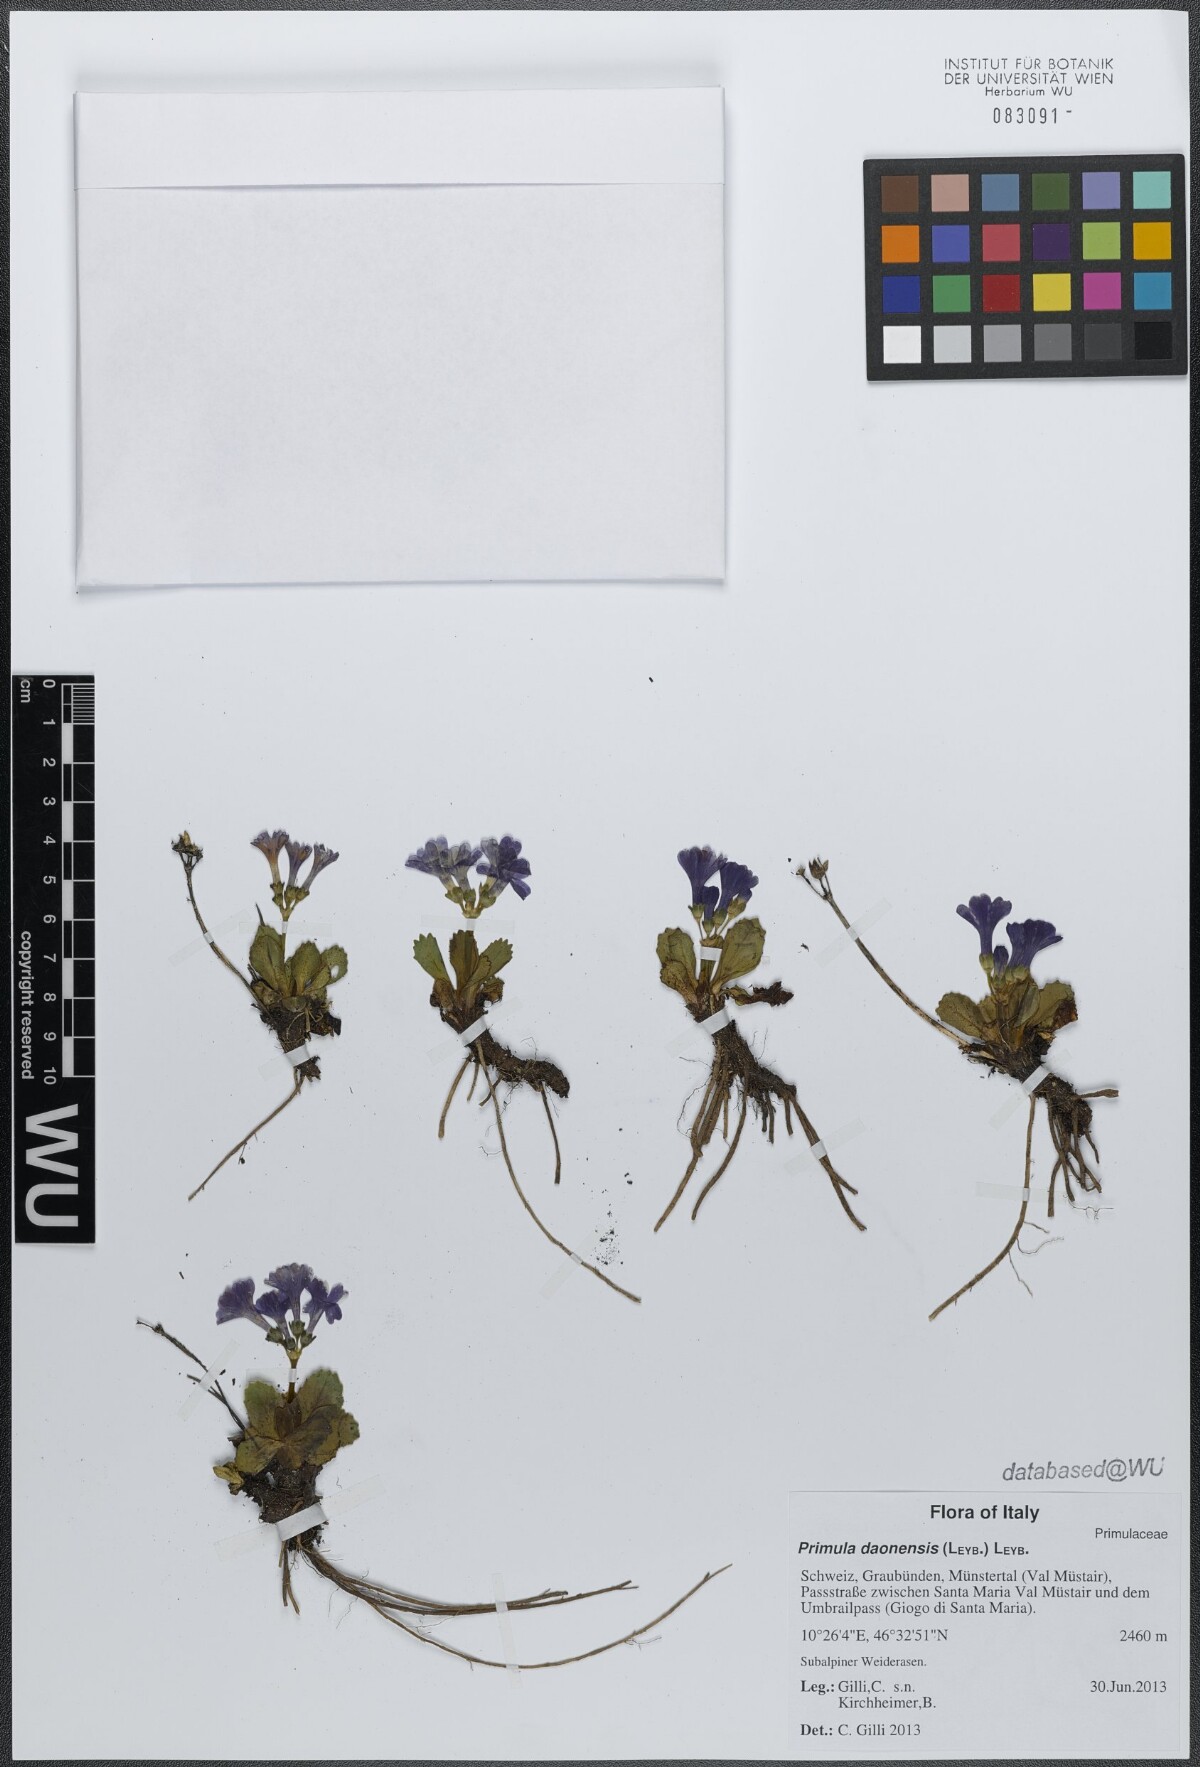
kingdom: Plantae
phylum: Tracheophyta
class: Magnoliopsida
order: Ericales
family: Primulaceae
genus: Primula
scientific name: Primula daonensis
